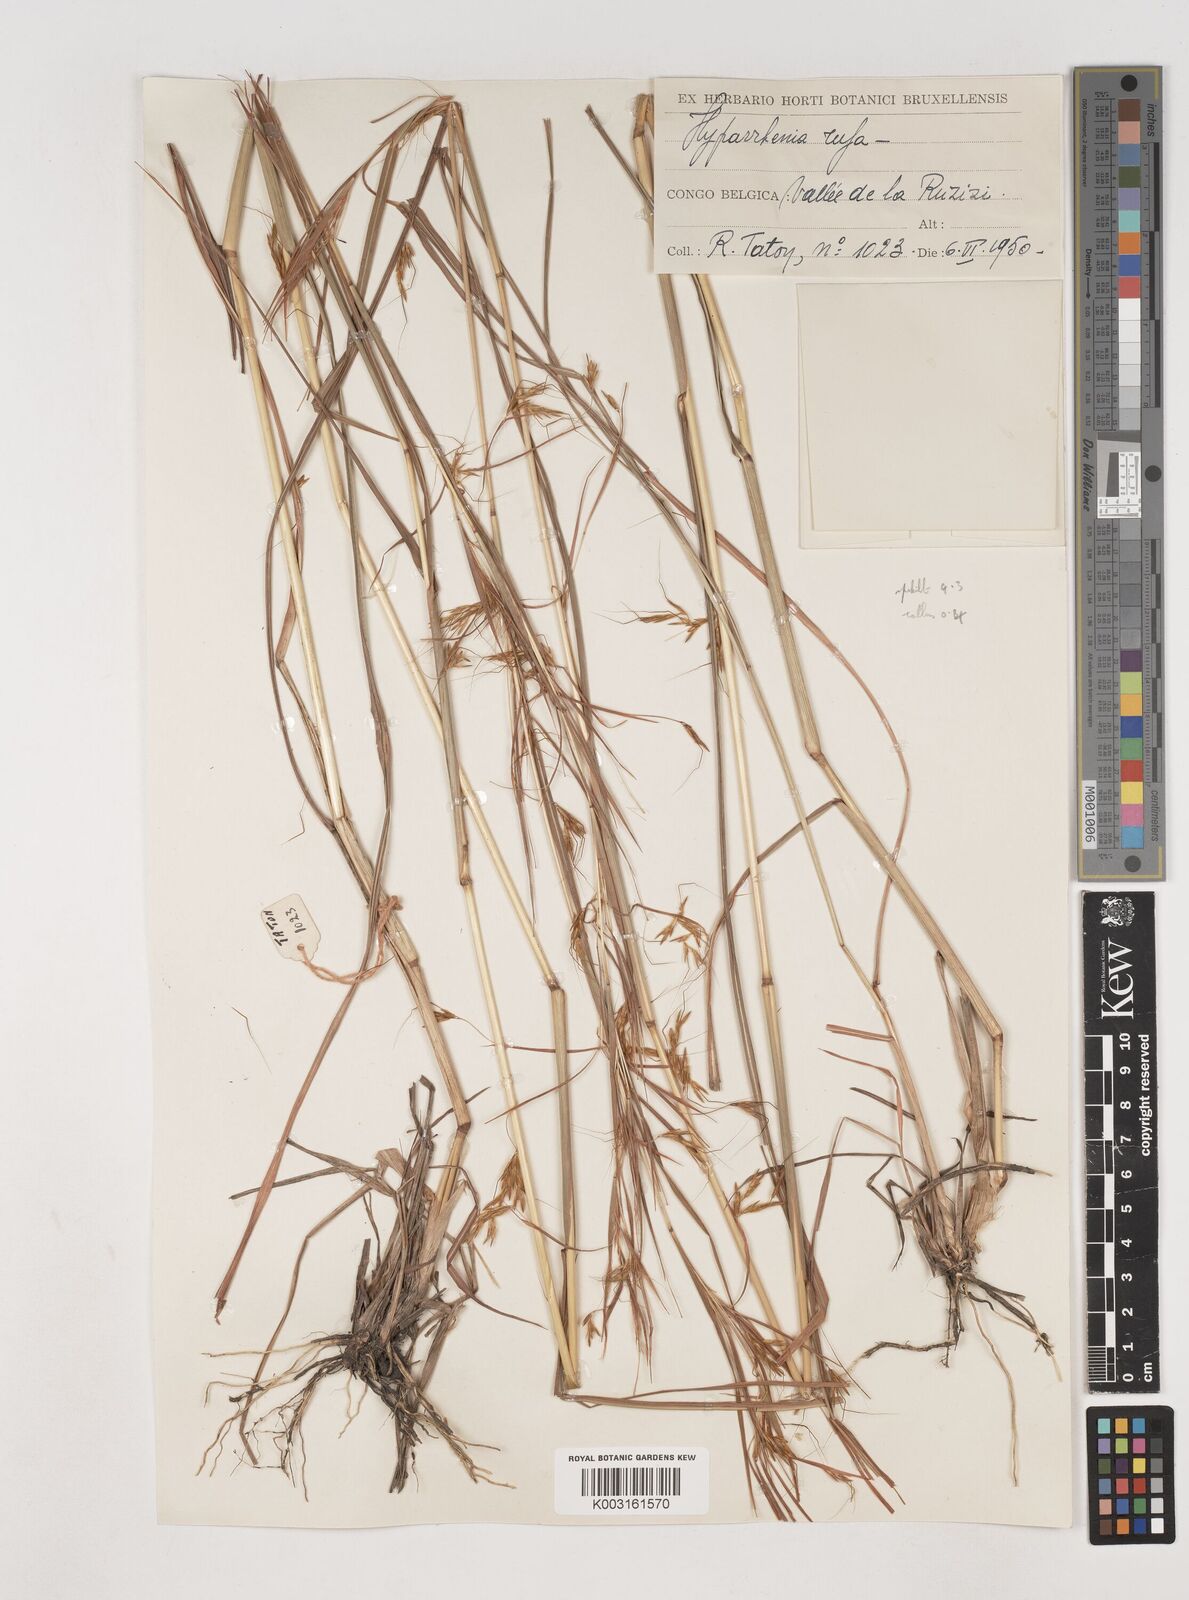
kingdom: Plantae
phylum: Tracheophyta
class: Liliopsida
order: Poales
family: Poaceae
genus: Hyparrhenia
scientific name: Hyparrhenia rufa
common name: Jaraguagrass
